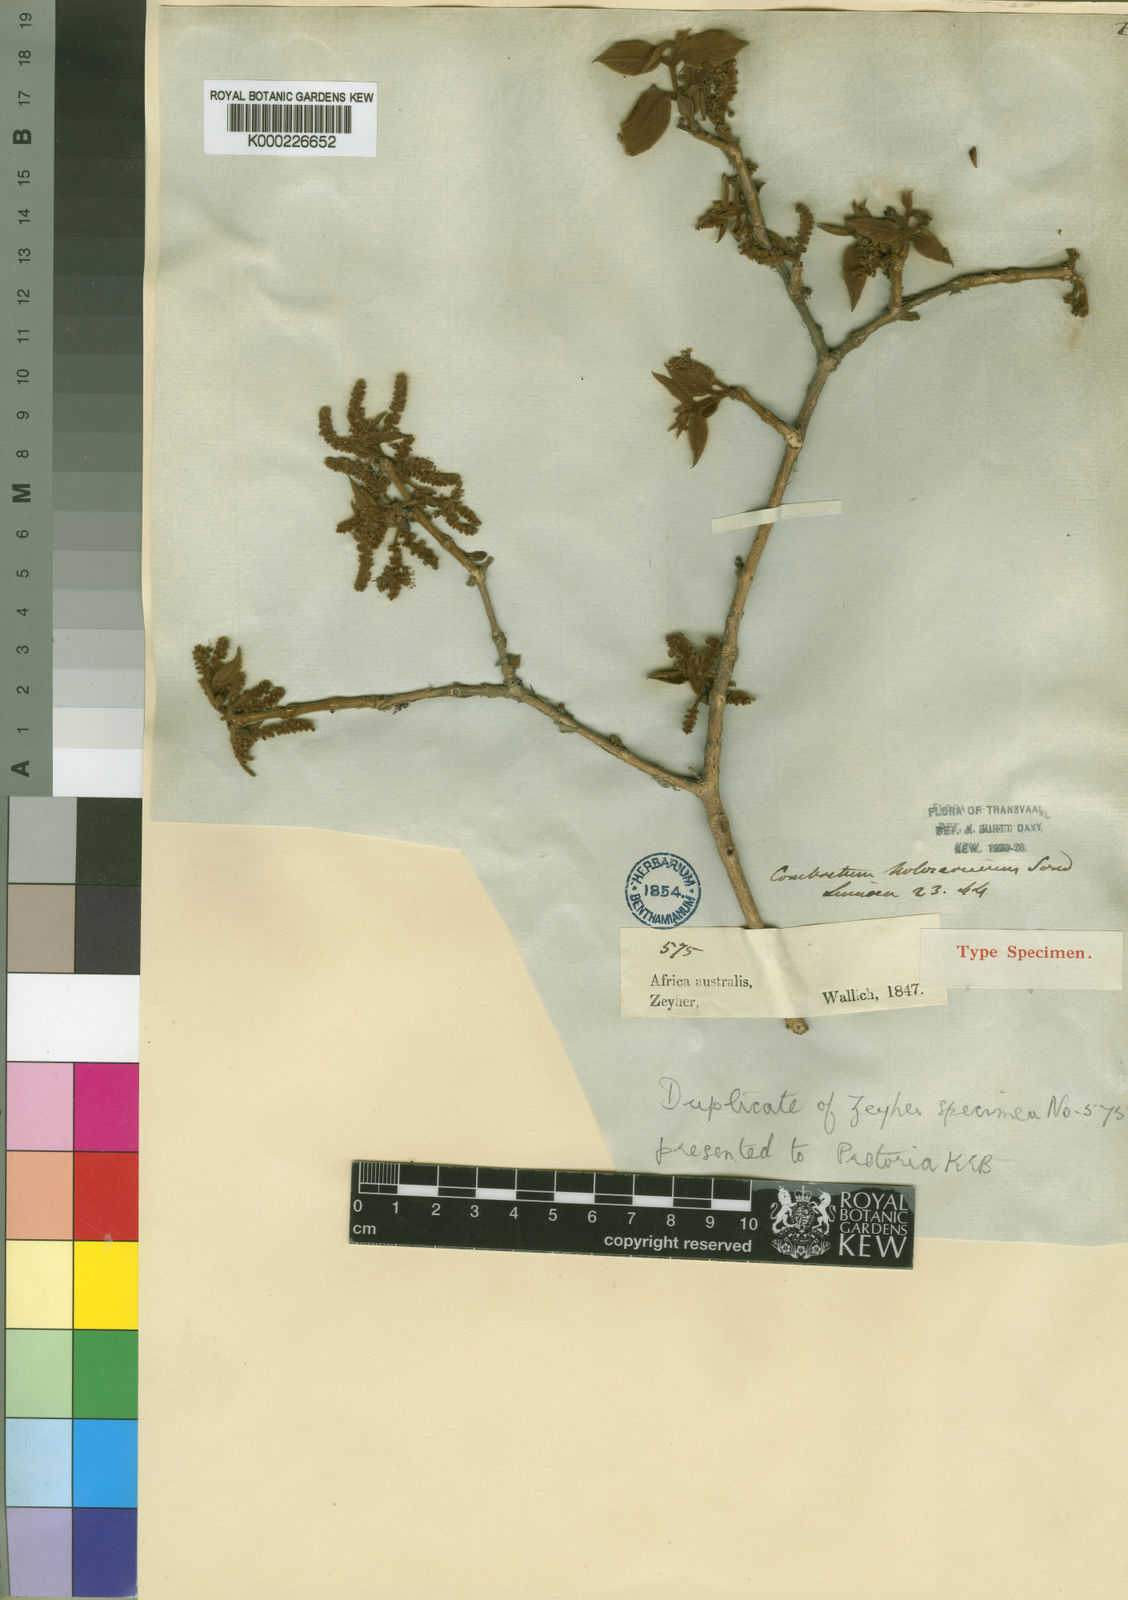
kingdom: Plantae
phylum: Tracheophyta
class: Magnoliopsida
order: Myrtales
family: Combretaceae
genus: Combretum
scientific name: Combretum molle
